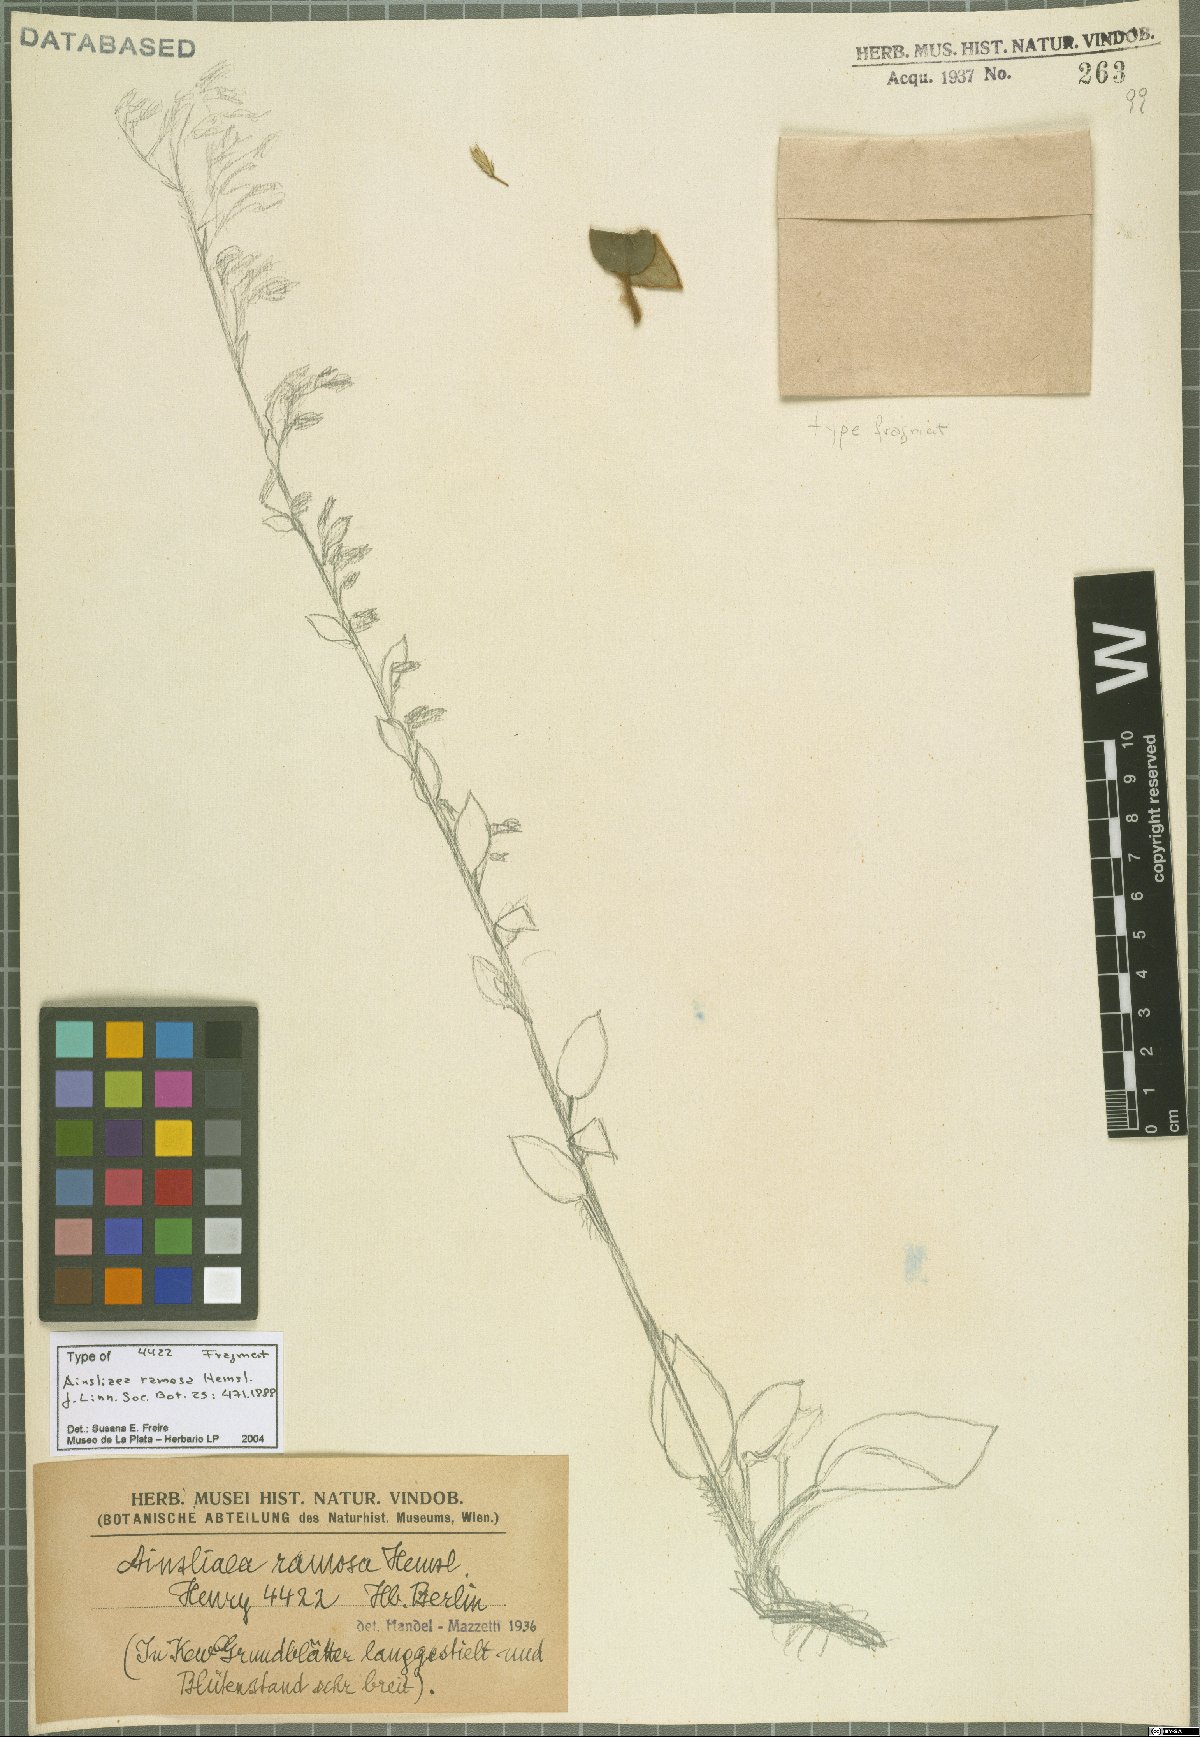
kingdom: Plantae
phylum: Tracheophyta
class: Magnoliopsida
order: Asterales
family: Asteraceae
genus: Ainsliaea
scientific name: Ainsliaea ramosa
